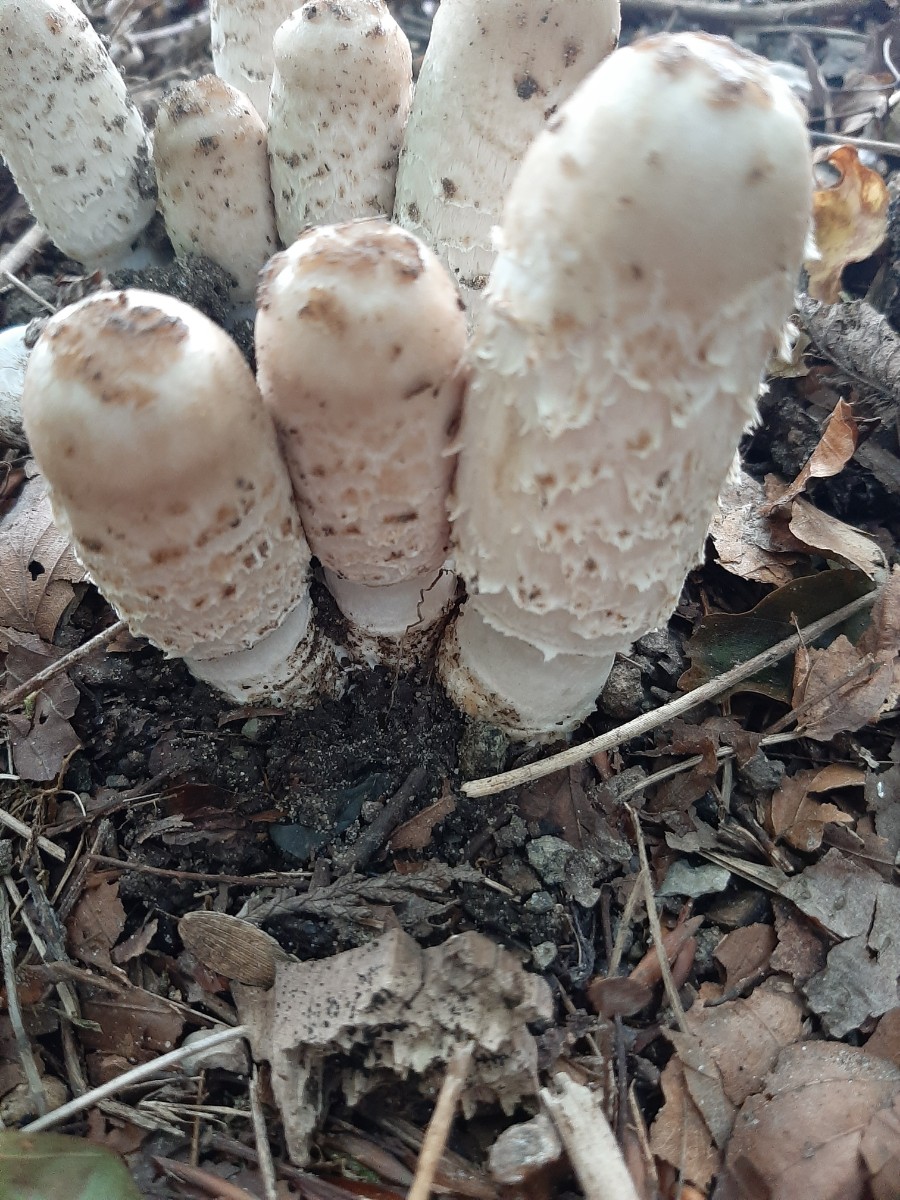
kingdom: Fungi
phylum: Basidiomycota
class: Agaricomycetes
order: Agaricales
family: Agaricaceae
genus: Coprinus
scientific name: Coprinus comatus
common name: stor parykhat
